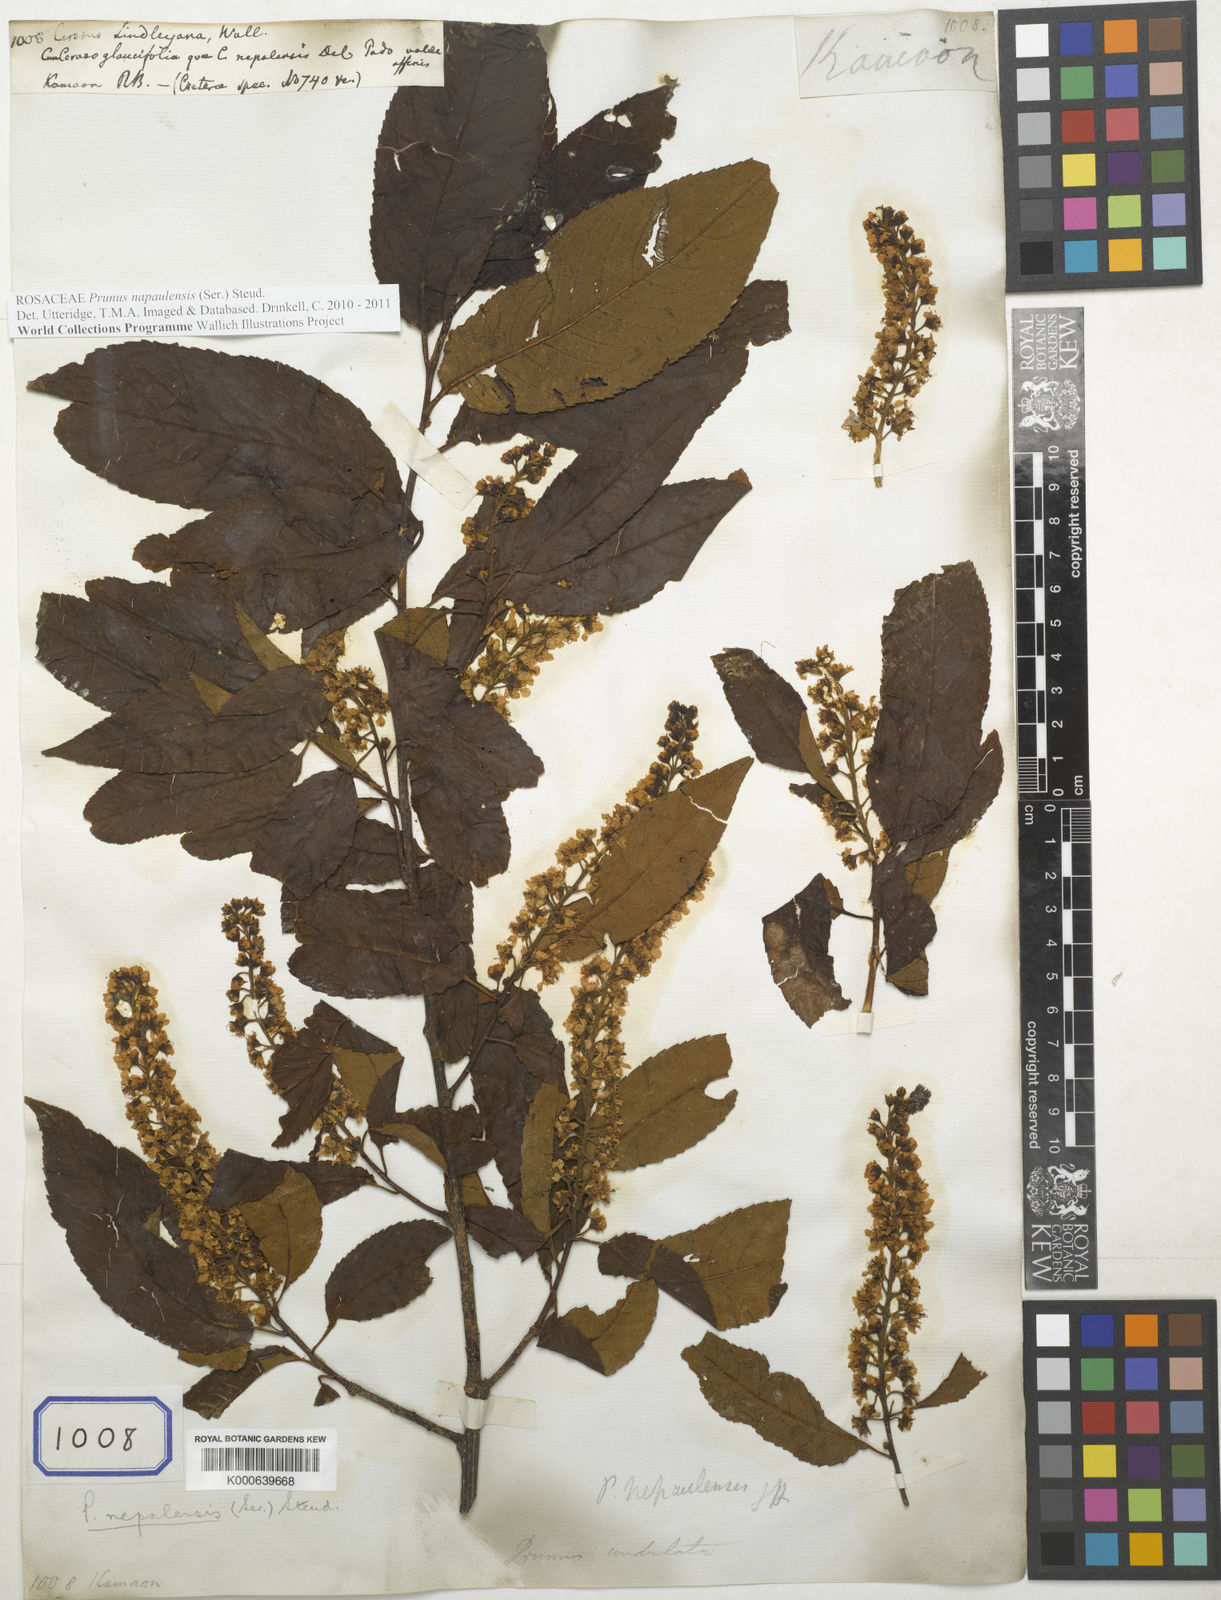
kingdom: Plantae
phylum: Tracheophyta
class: Magnoliopsida
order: Rosales
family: Rosaceae
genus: Prunus
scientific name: Prunus napaulensis
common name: Khasia cherry
